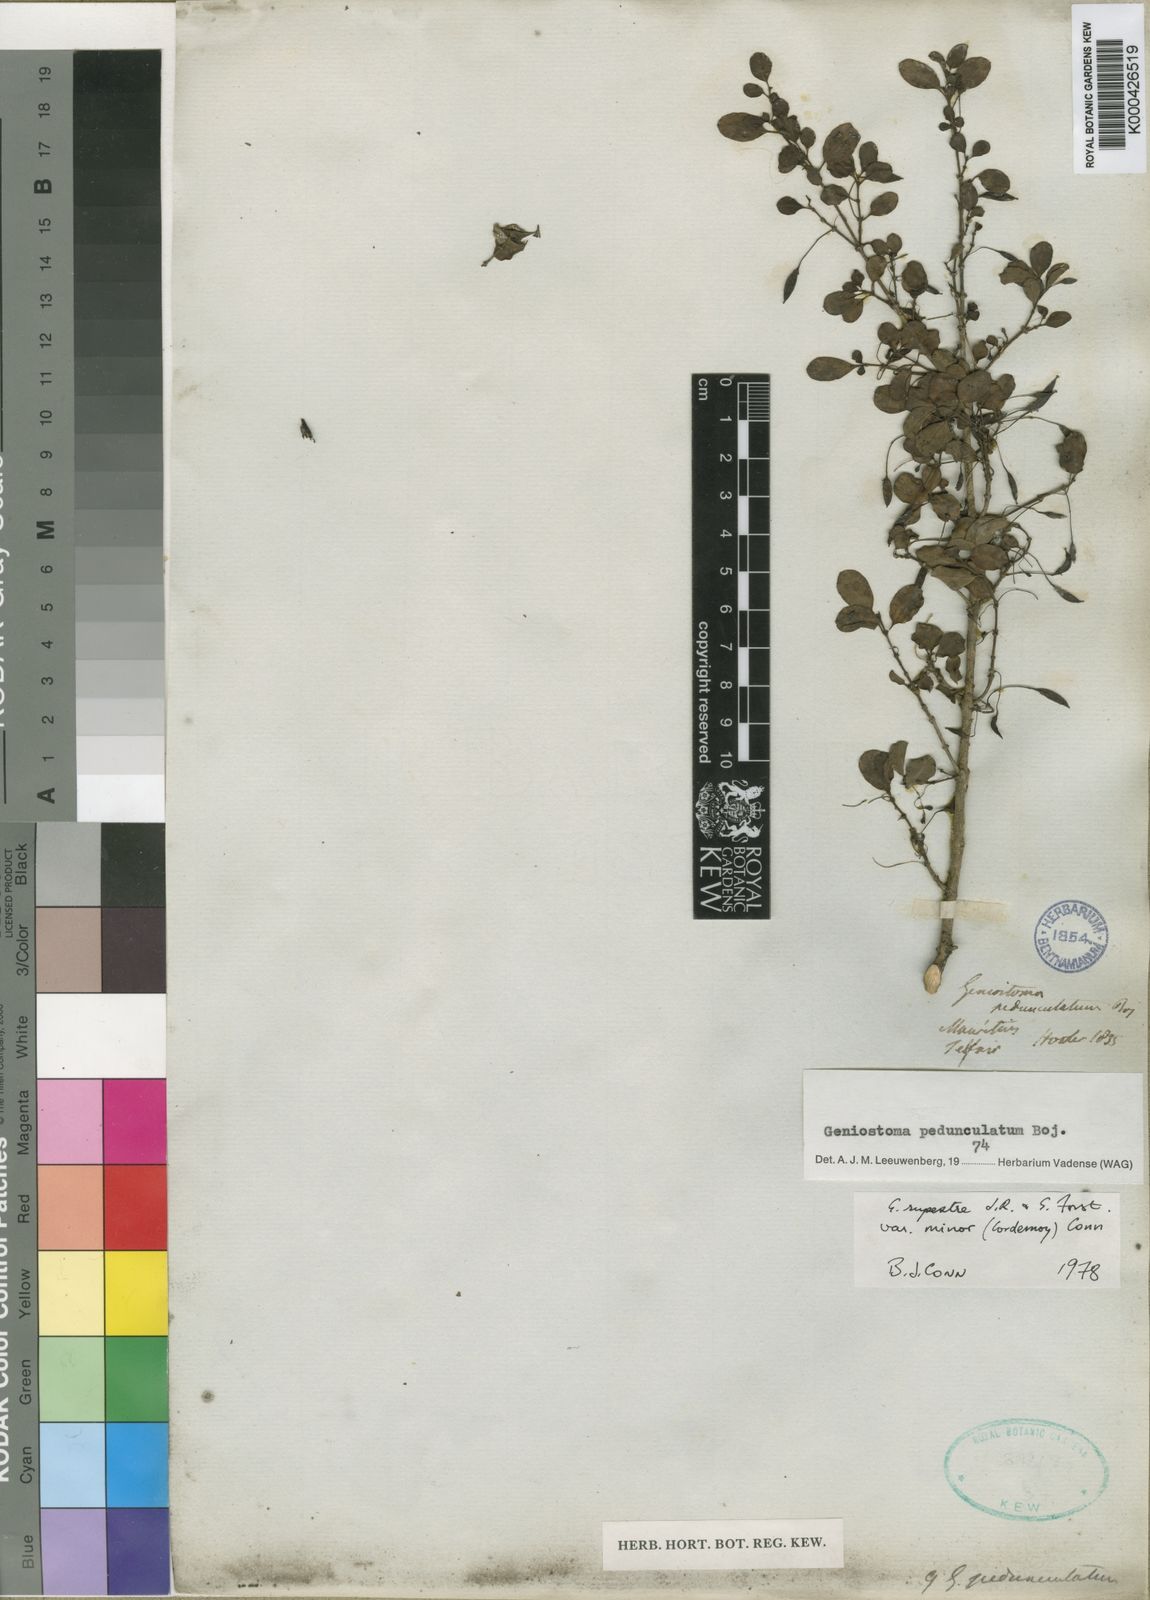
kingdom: Plantae
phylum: Tracheophyta
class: Magnoliopsida
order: Gentianales
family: Loganiaceae
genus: Geniostoma
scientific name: Geniostoma pedunculatum
